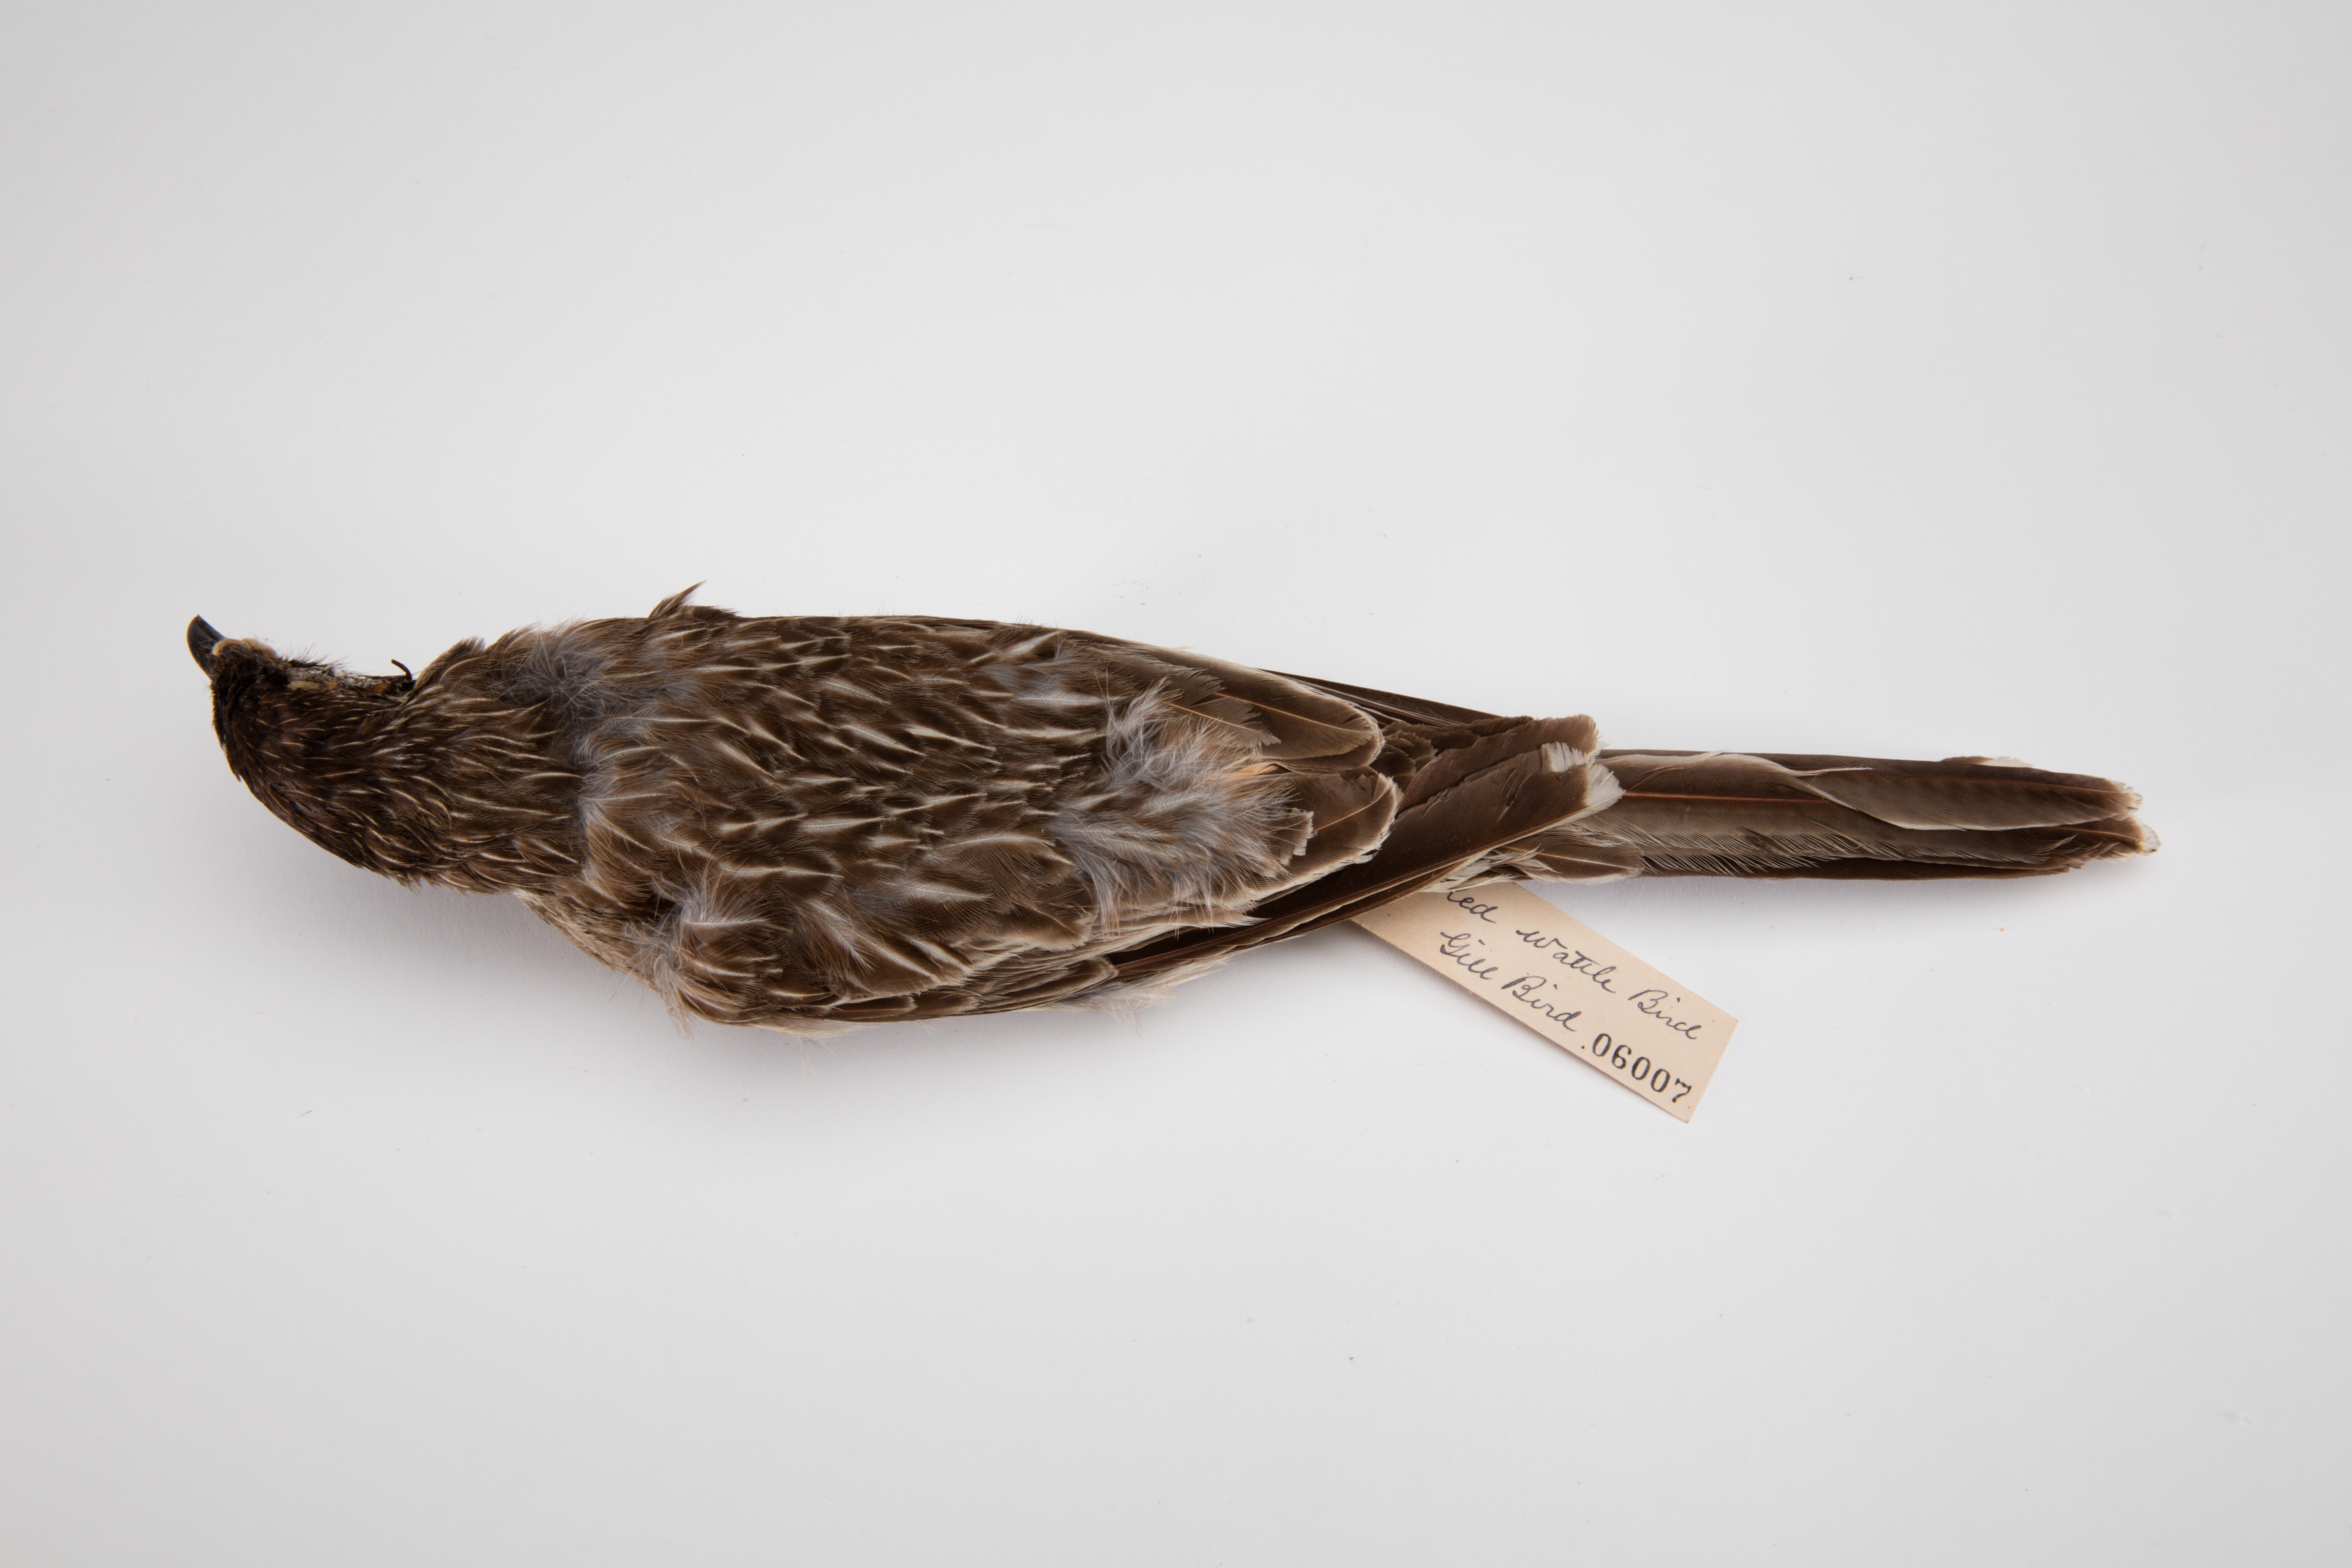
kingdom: Animalia
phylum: Chordata
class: Aves
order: Passeriformes
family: Meliphagidae
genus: Anthochaera
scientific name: Anthochaera carunculata
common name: Red wattlebird
